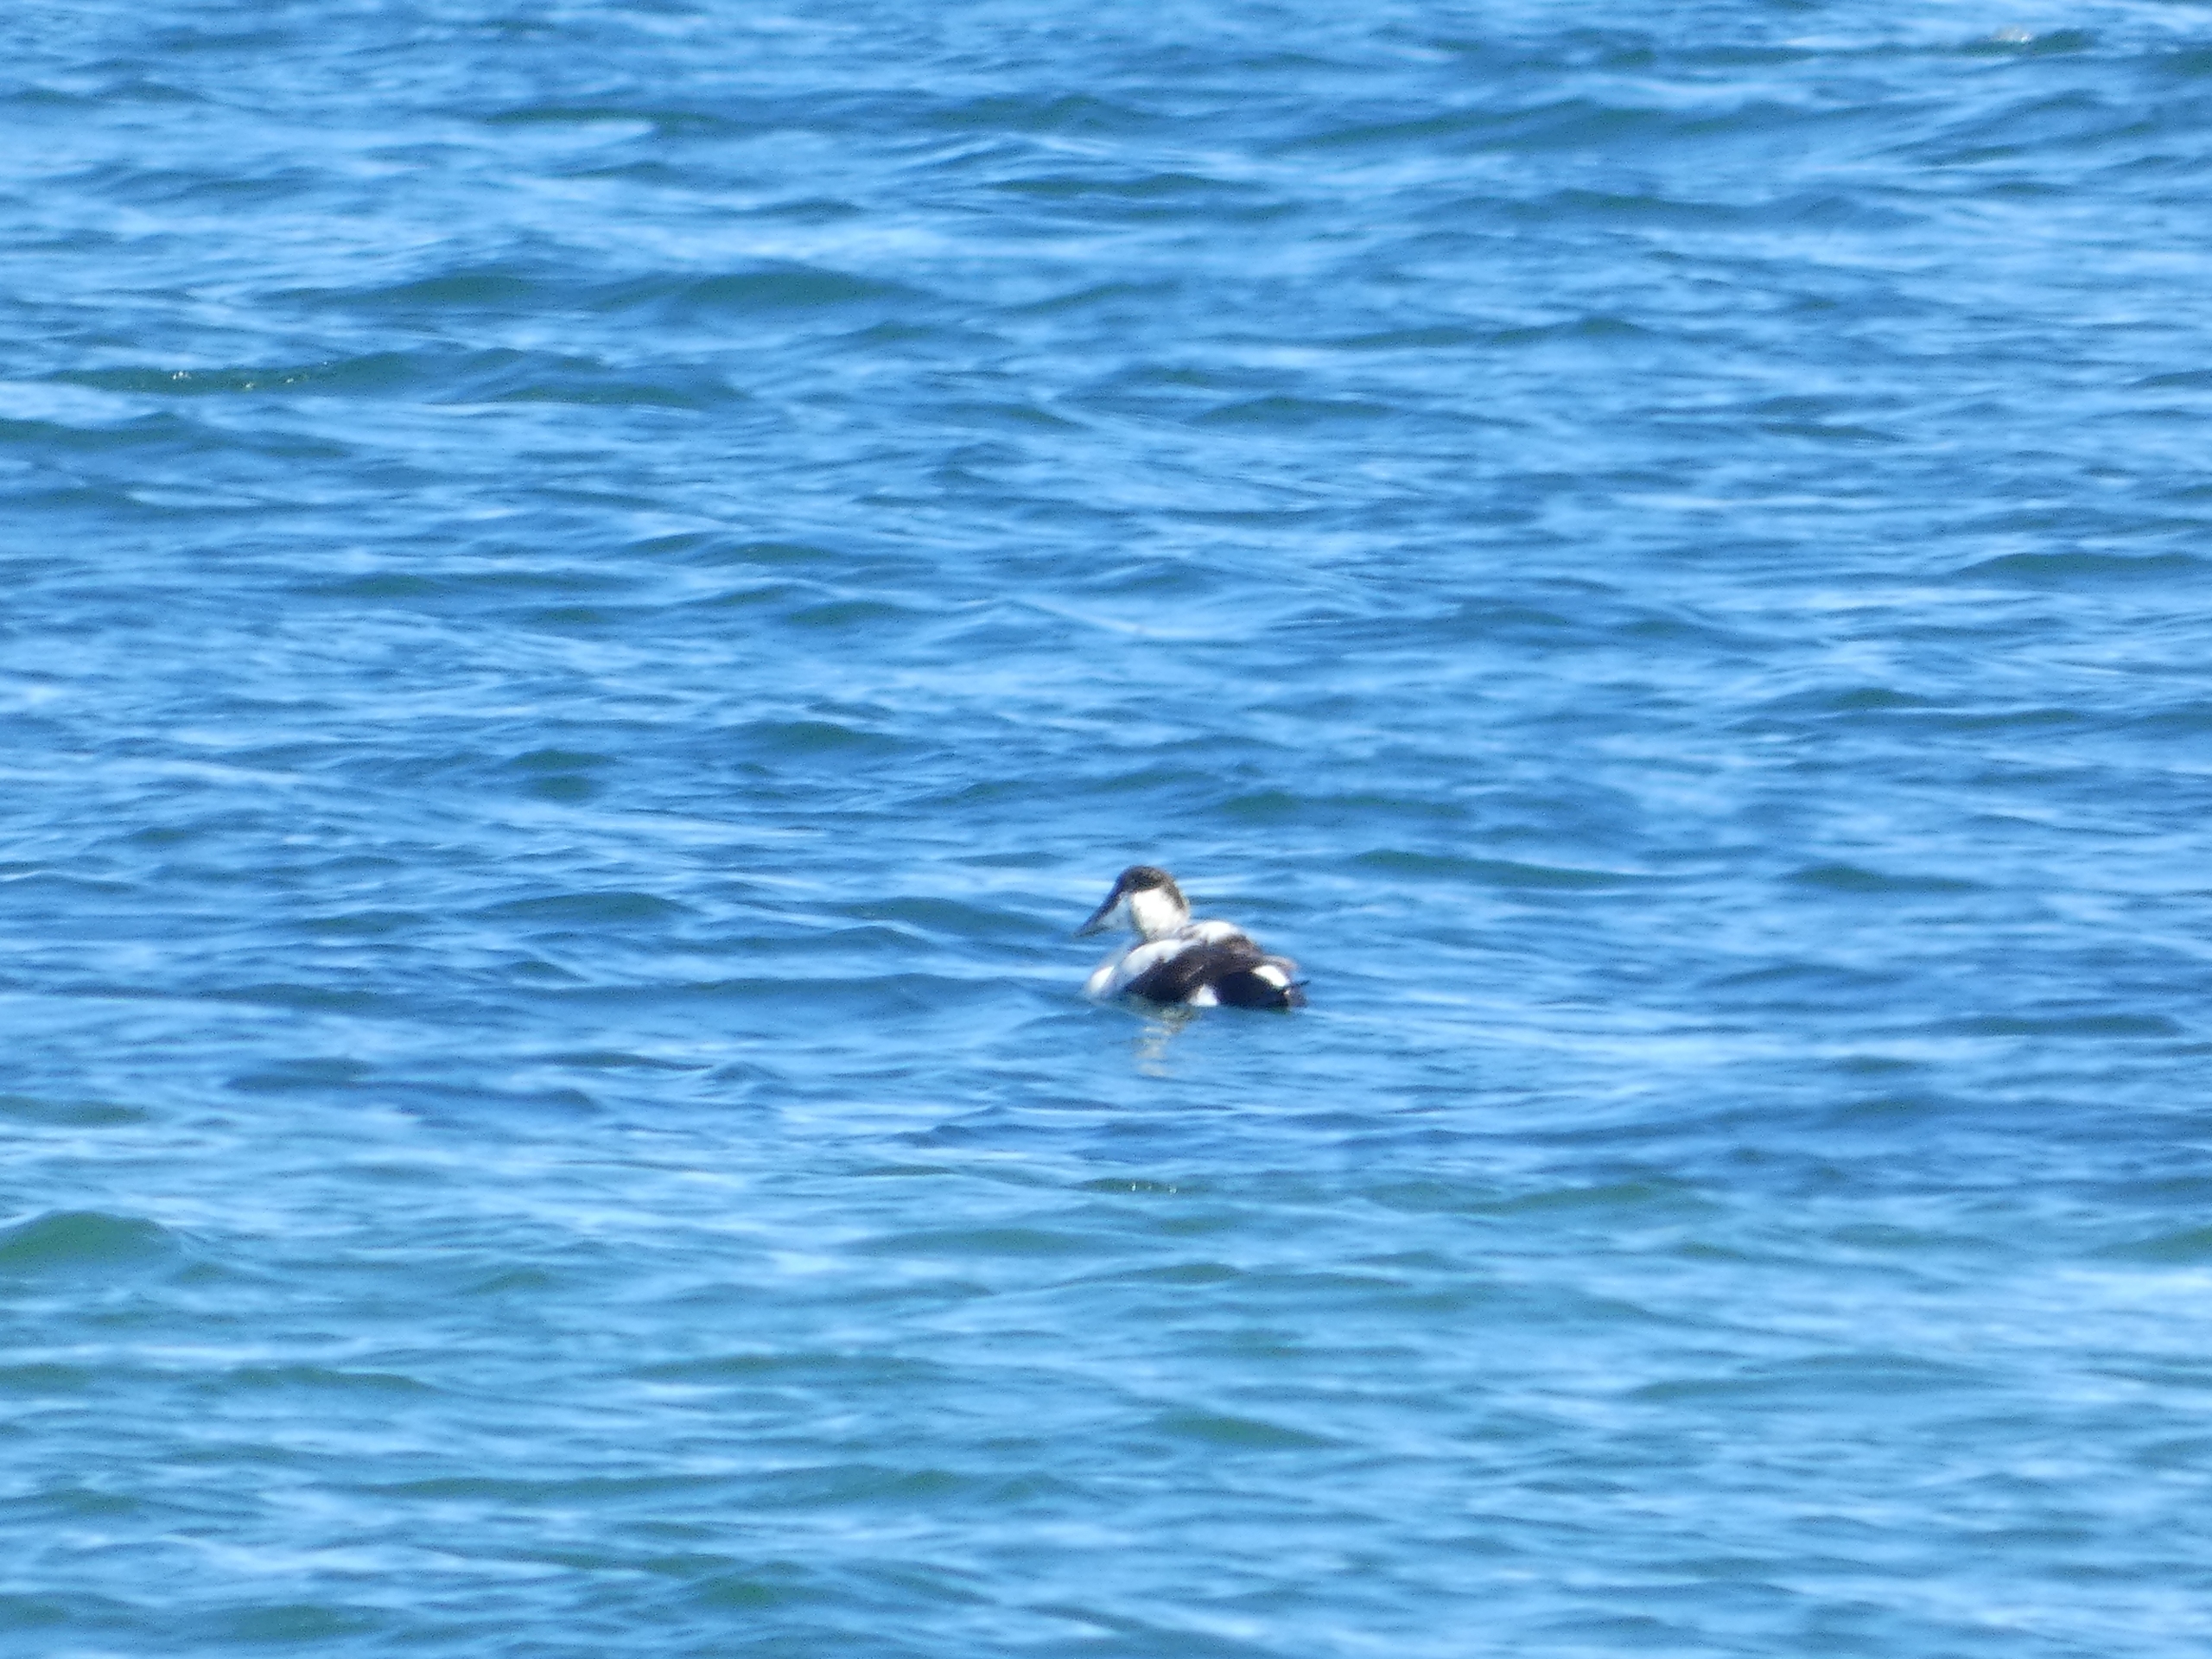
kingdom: Animalia
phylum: Chordata
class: Aves
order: Anseriformes
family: Anatidae
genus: Somateria
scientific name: Somateria mollissima
